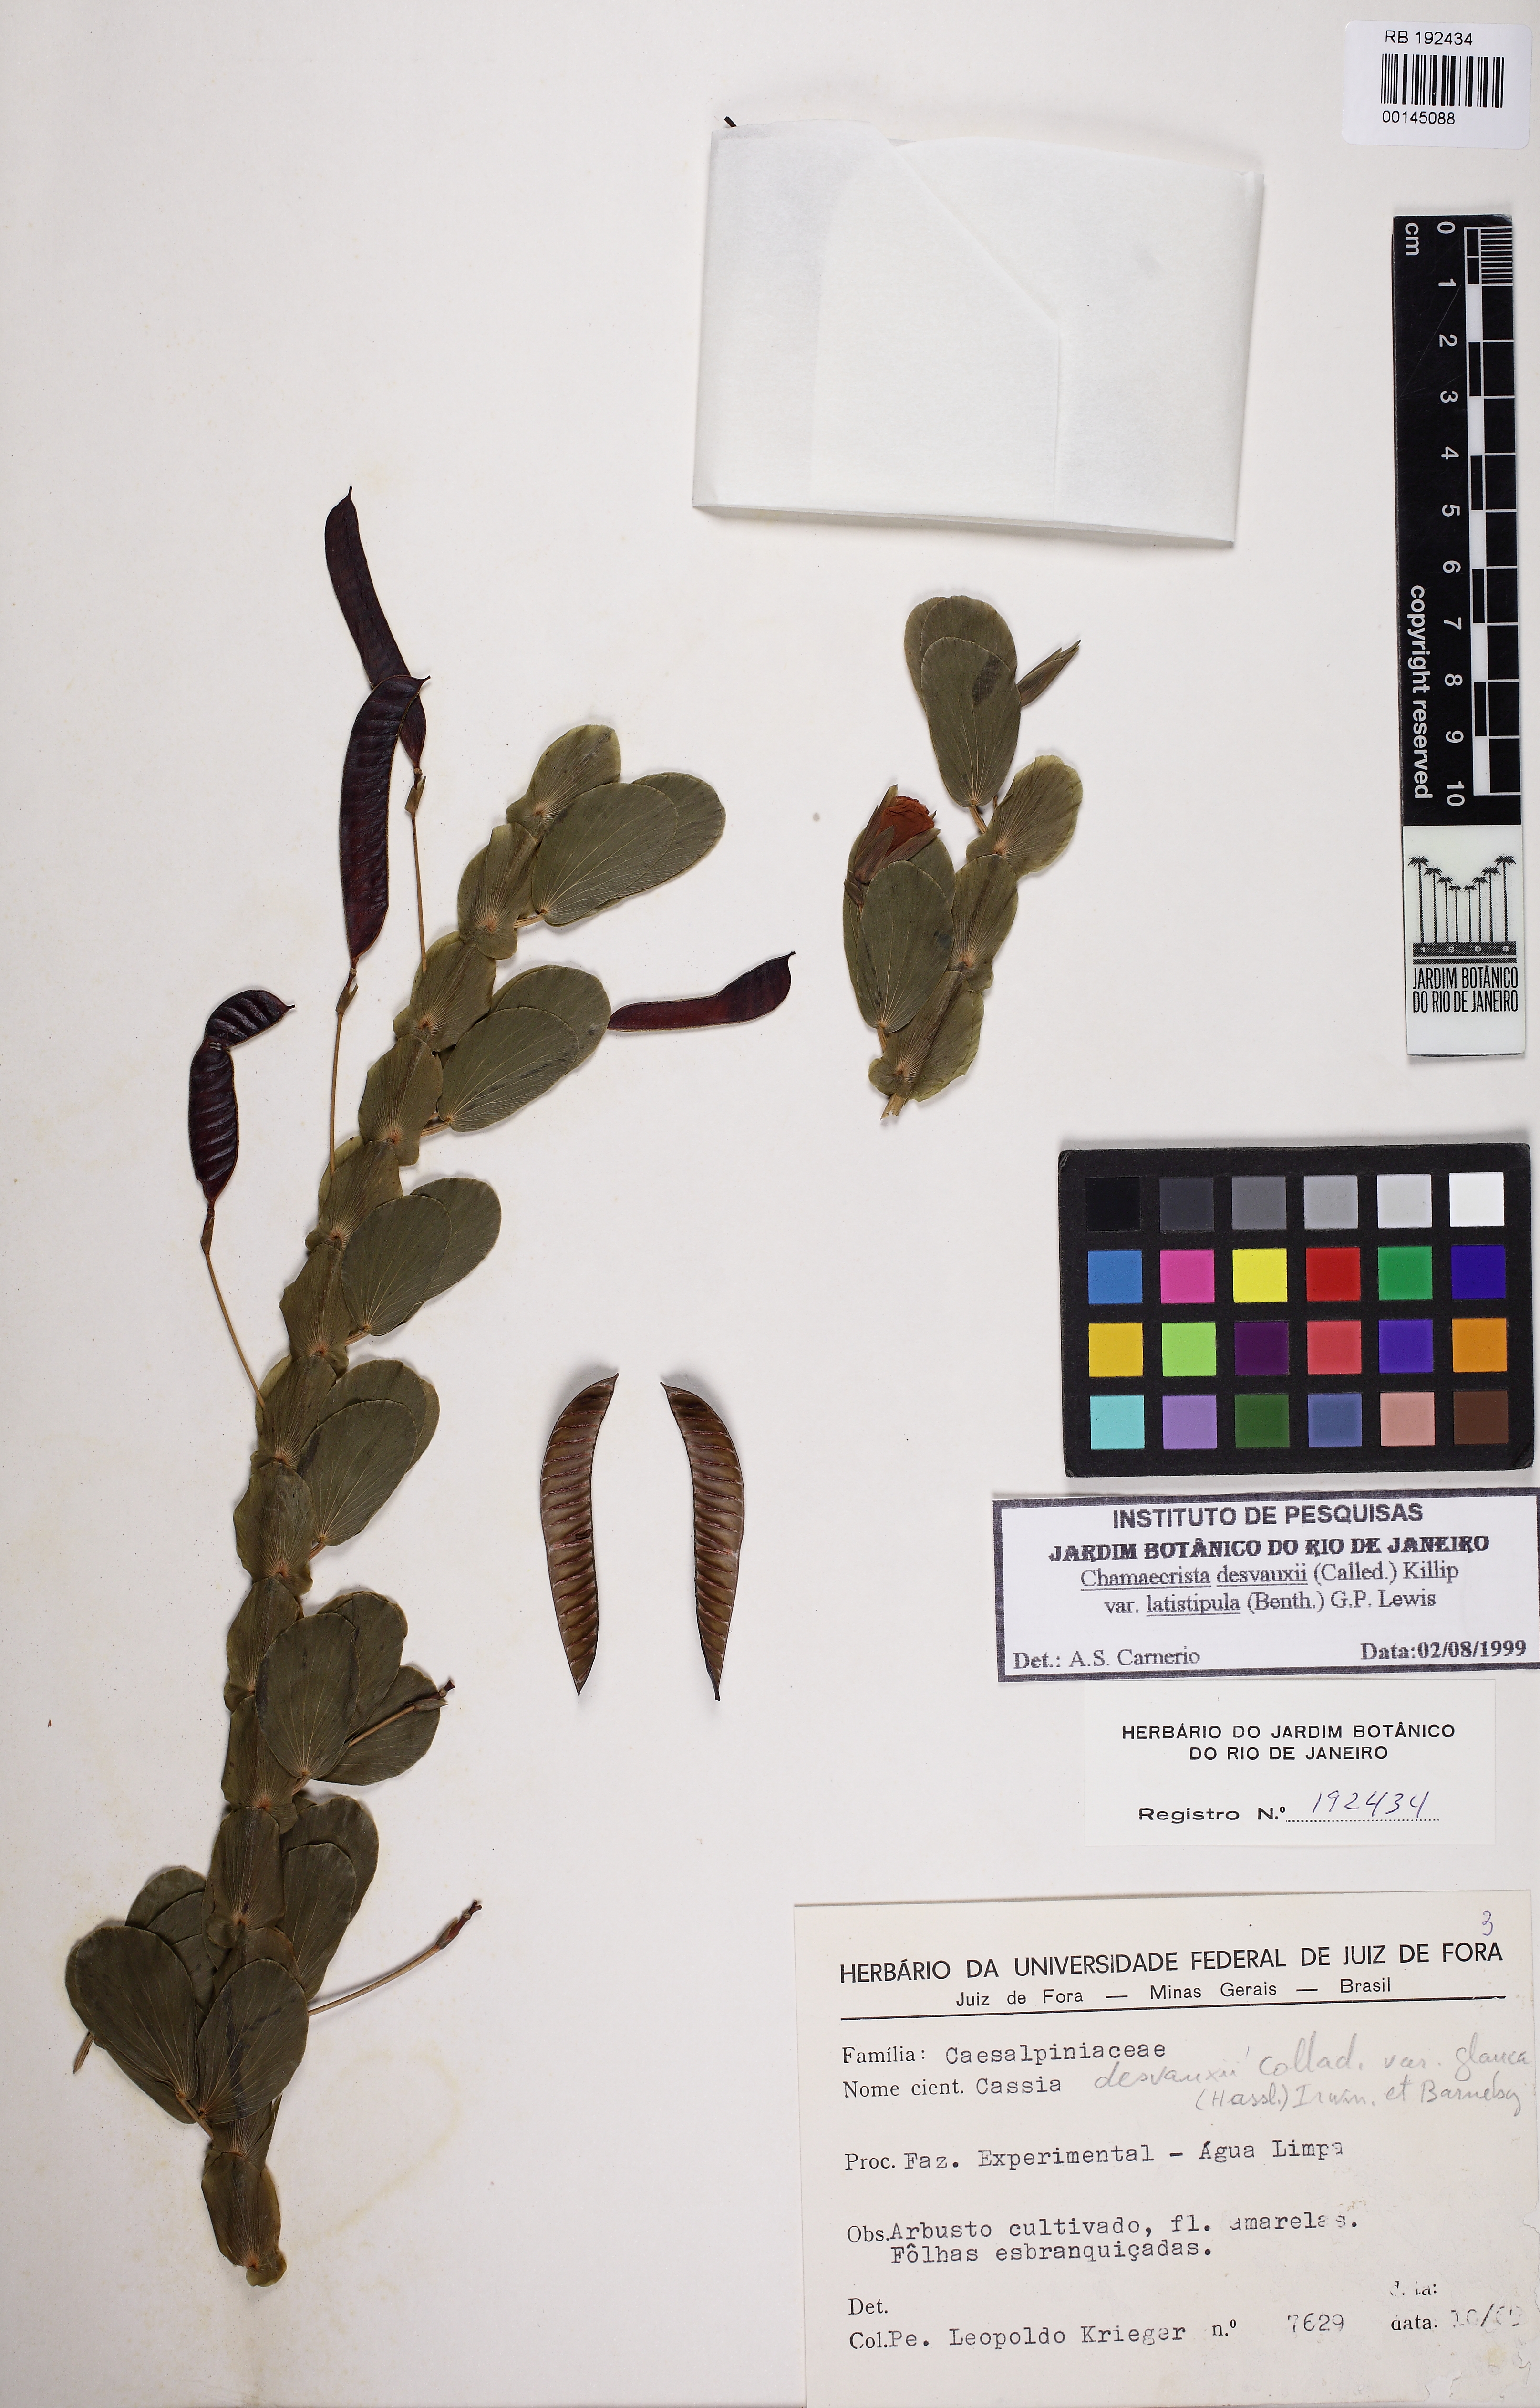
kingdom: Plantae
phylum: Tracheophyta
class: Magnoliopsida
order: Fabales
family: Fabaceae
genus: Chamaecrista
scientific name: Chamaecrista desvauxii
